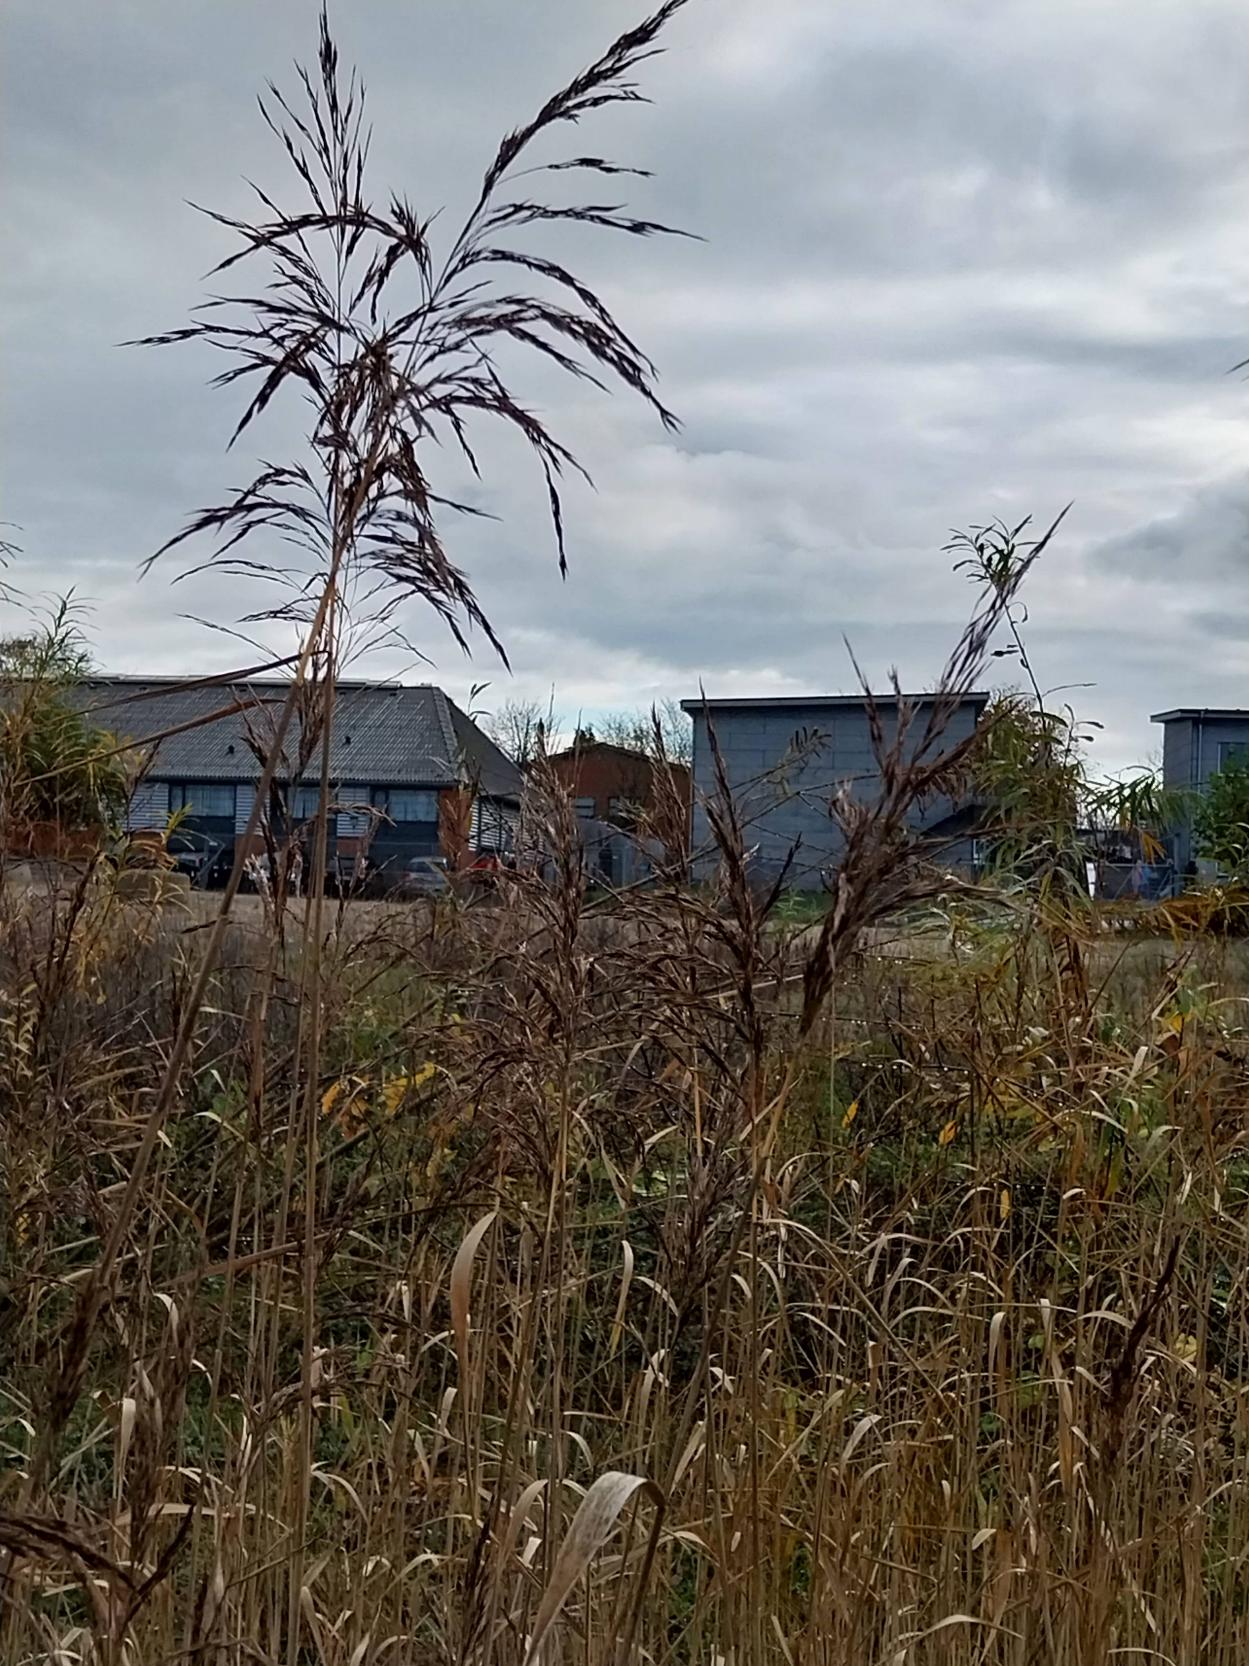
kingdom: Plantae
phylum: Tracheophyta
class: Liliopsida
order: Poales
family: Poaceae
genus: Phragmites
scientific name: Phragmites australis
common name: Tagrør
